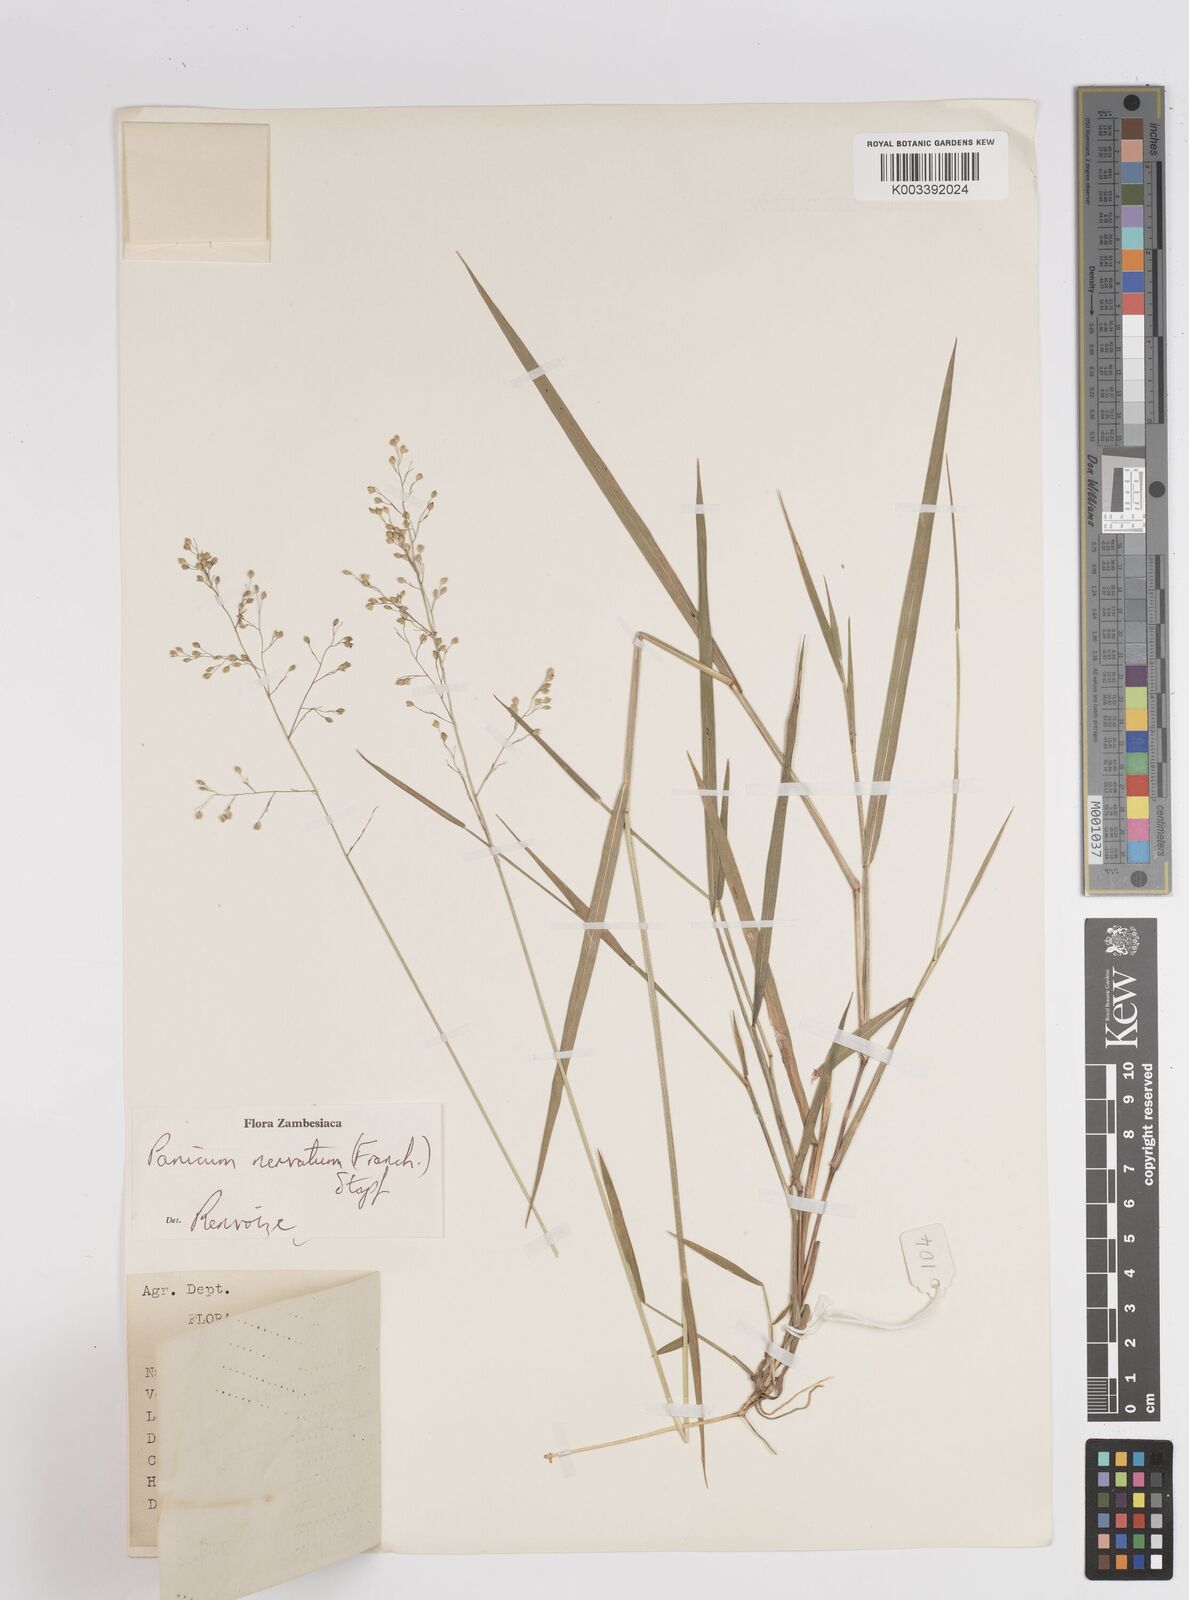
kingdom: Plantae
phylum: Tracheophyta
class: Liliopsida
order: Poales
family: Poaceae
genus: Trichanthecium
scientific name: Trichanthecium nervatum
